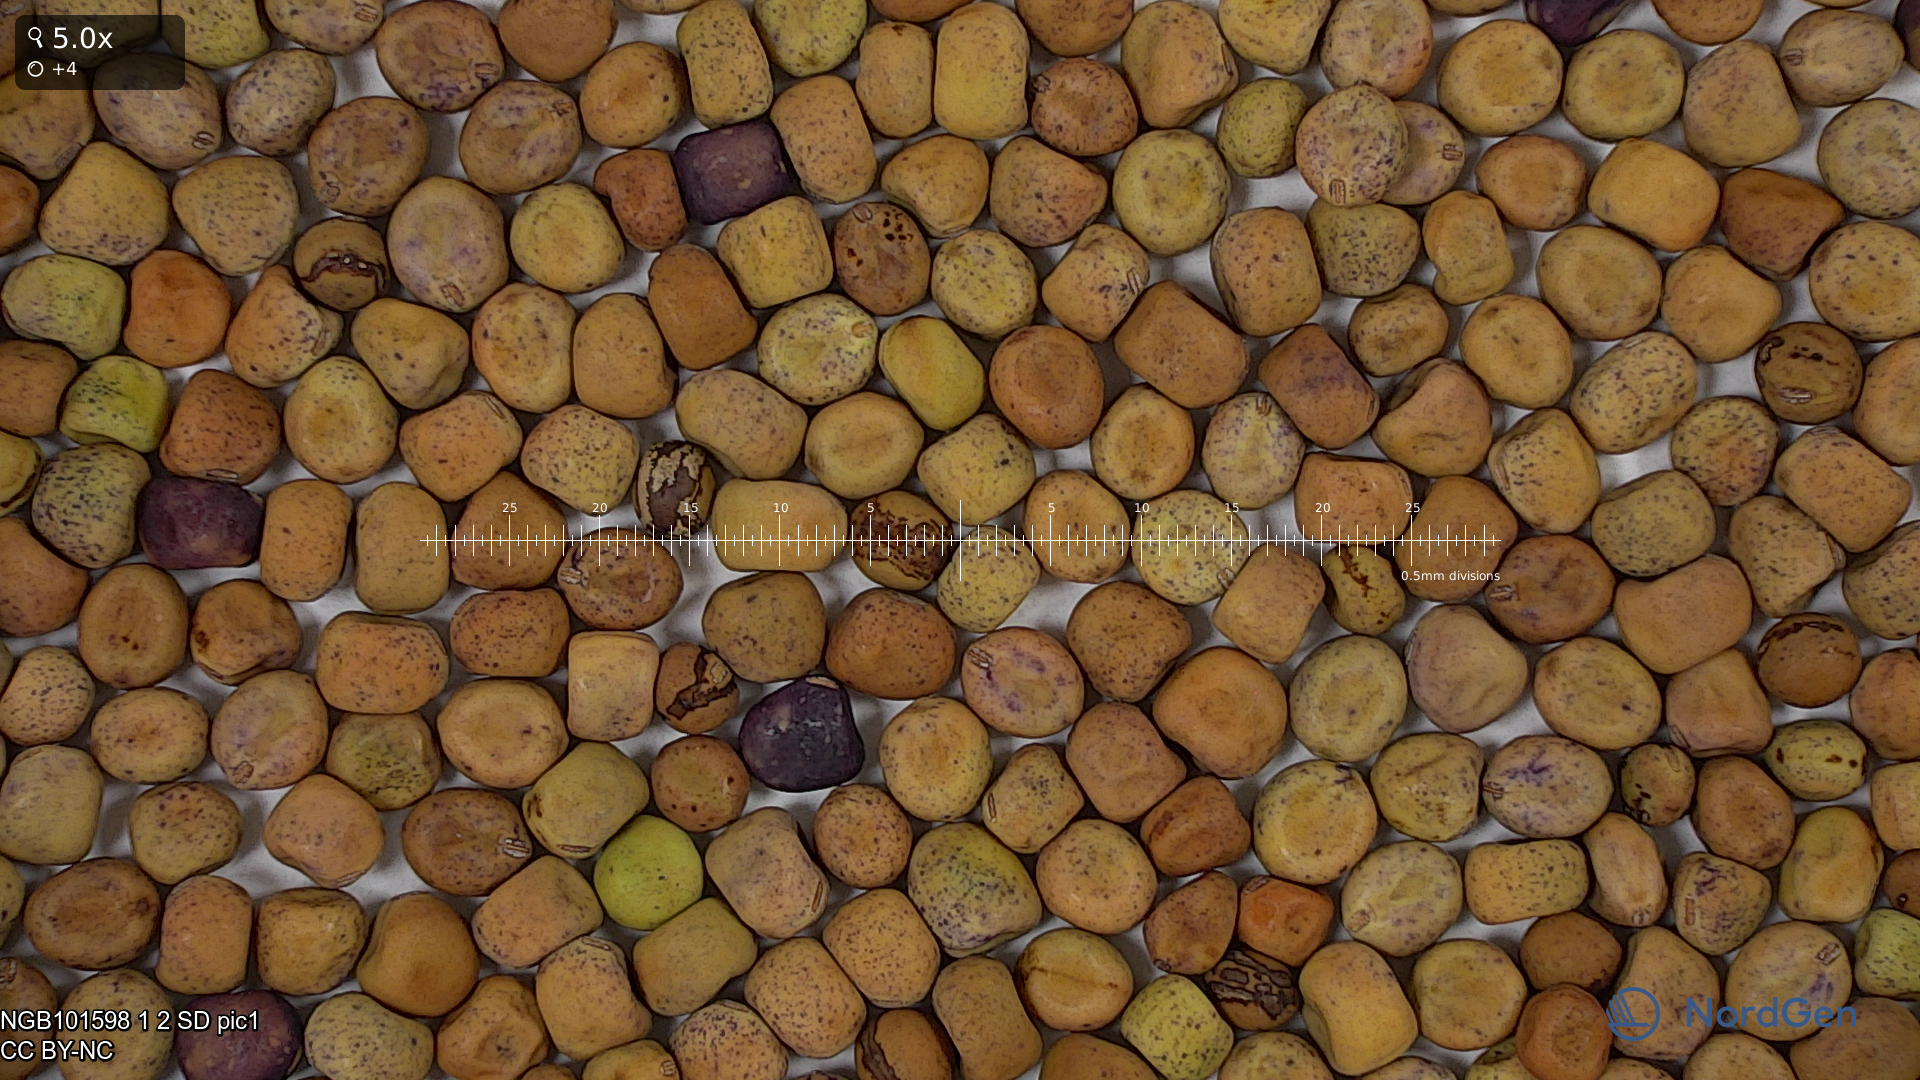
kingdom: Plantae
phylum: Tracheophyta
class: Magnoliopsida
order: Fabales
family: Fabaceae
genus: Lathyrus
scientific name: Lathyrus oleraceus
